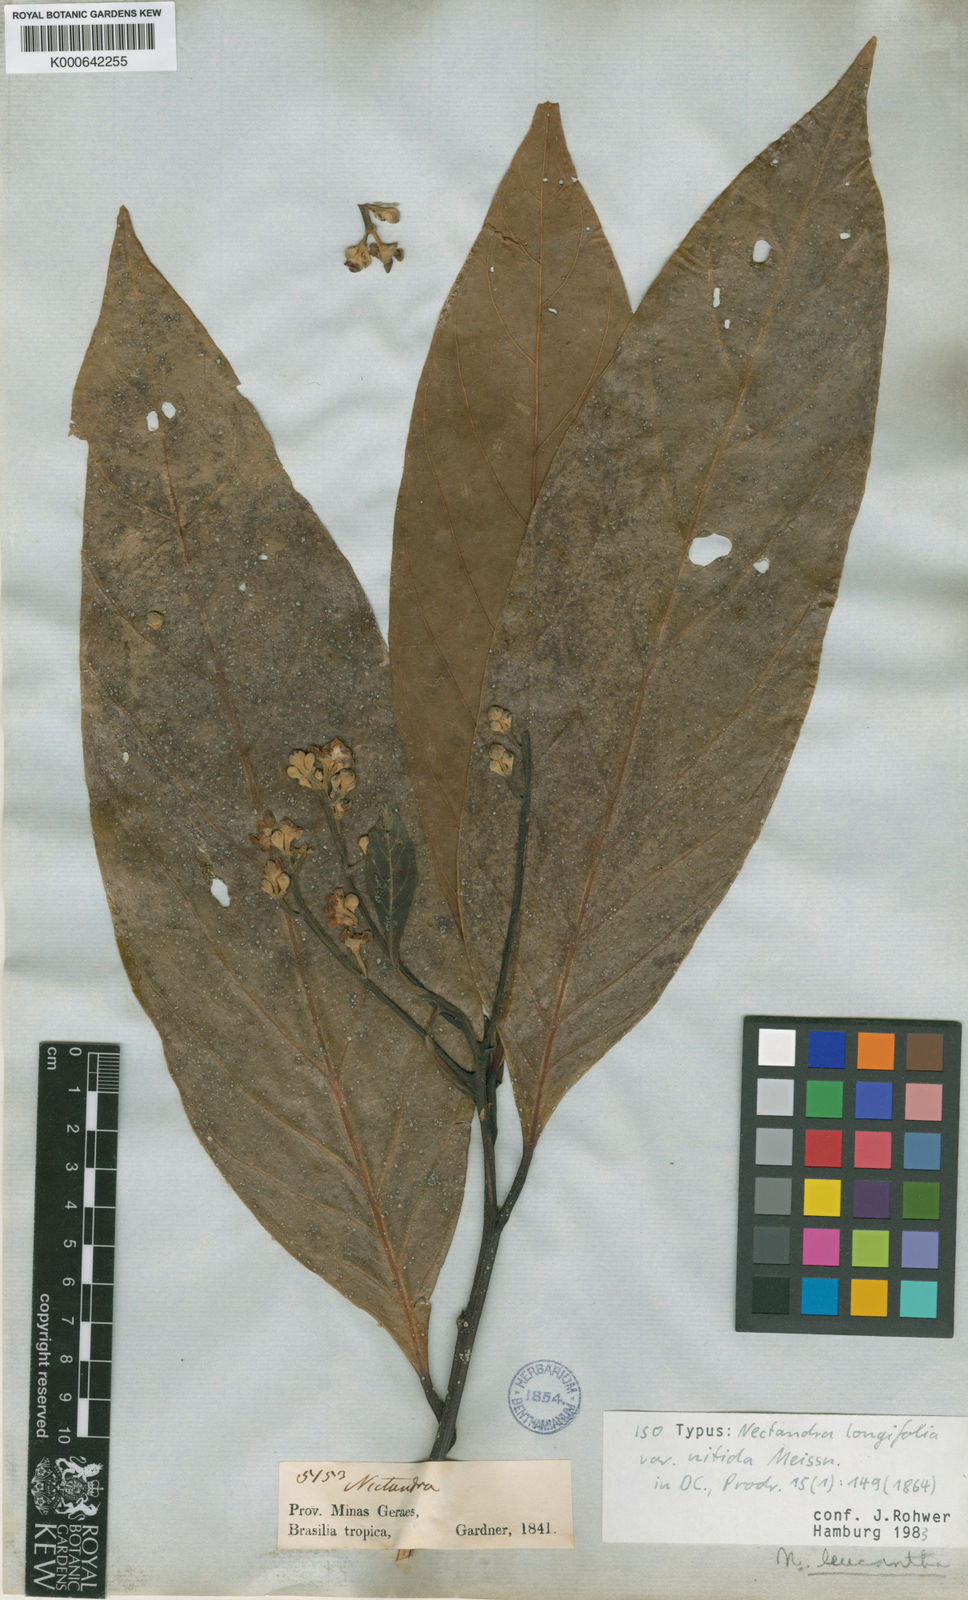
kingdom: Plantae
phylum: Tracheophyta
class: Magnoliopsida
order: Laurales
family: Lauraceae
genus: Nectandra
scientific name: Nectandra leucantha
